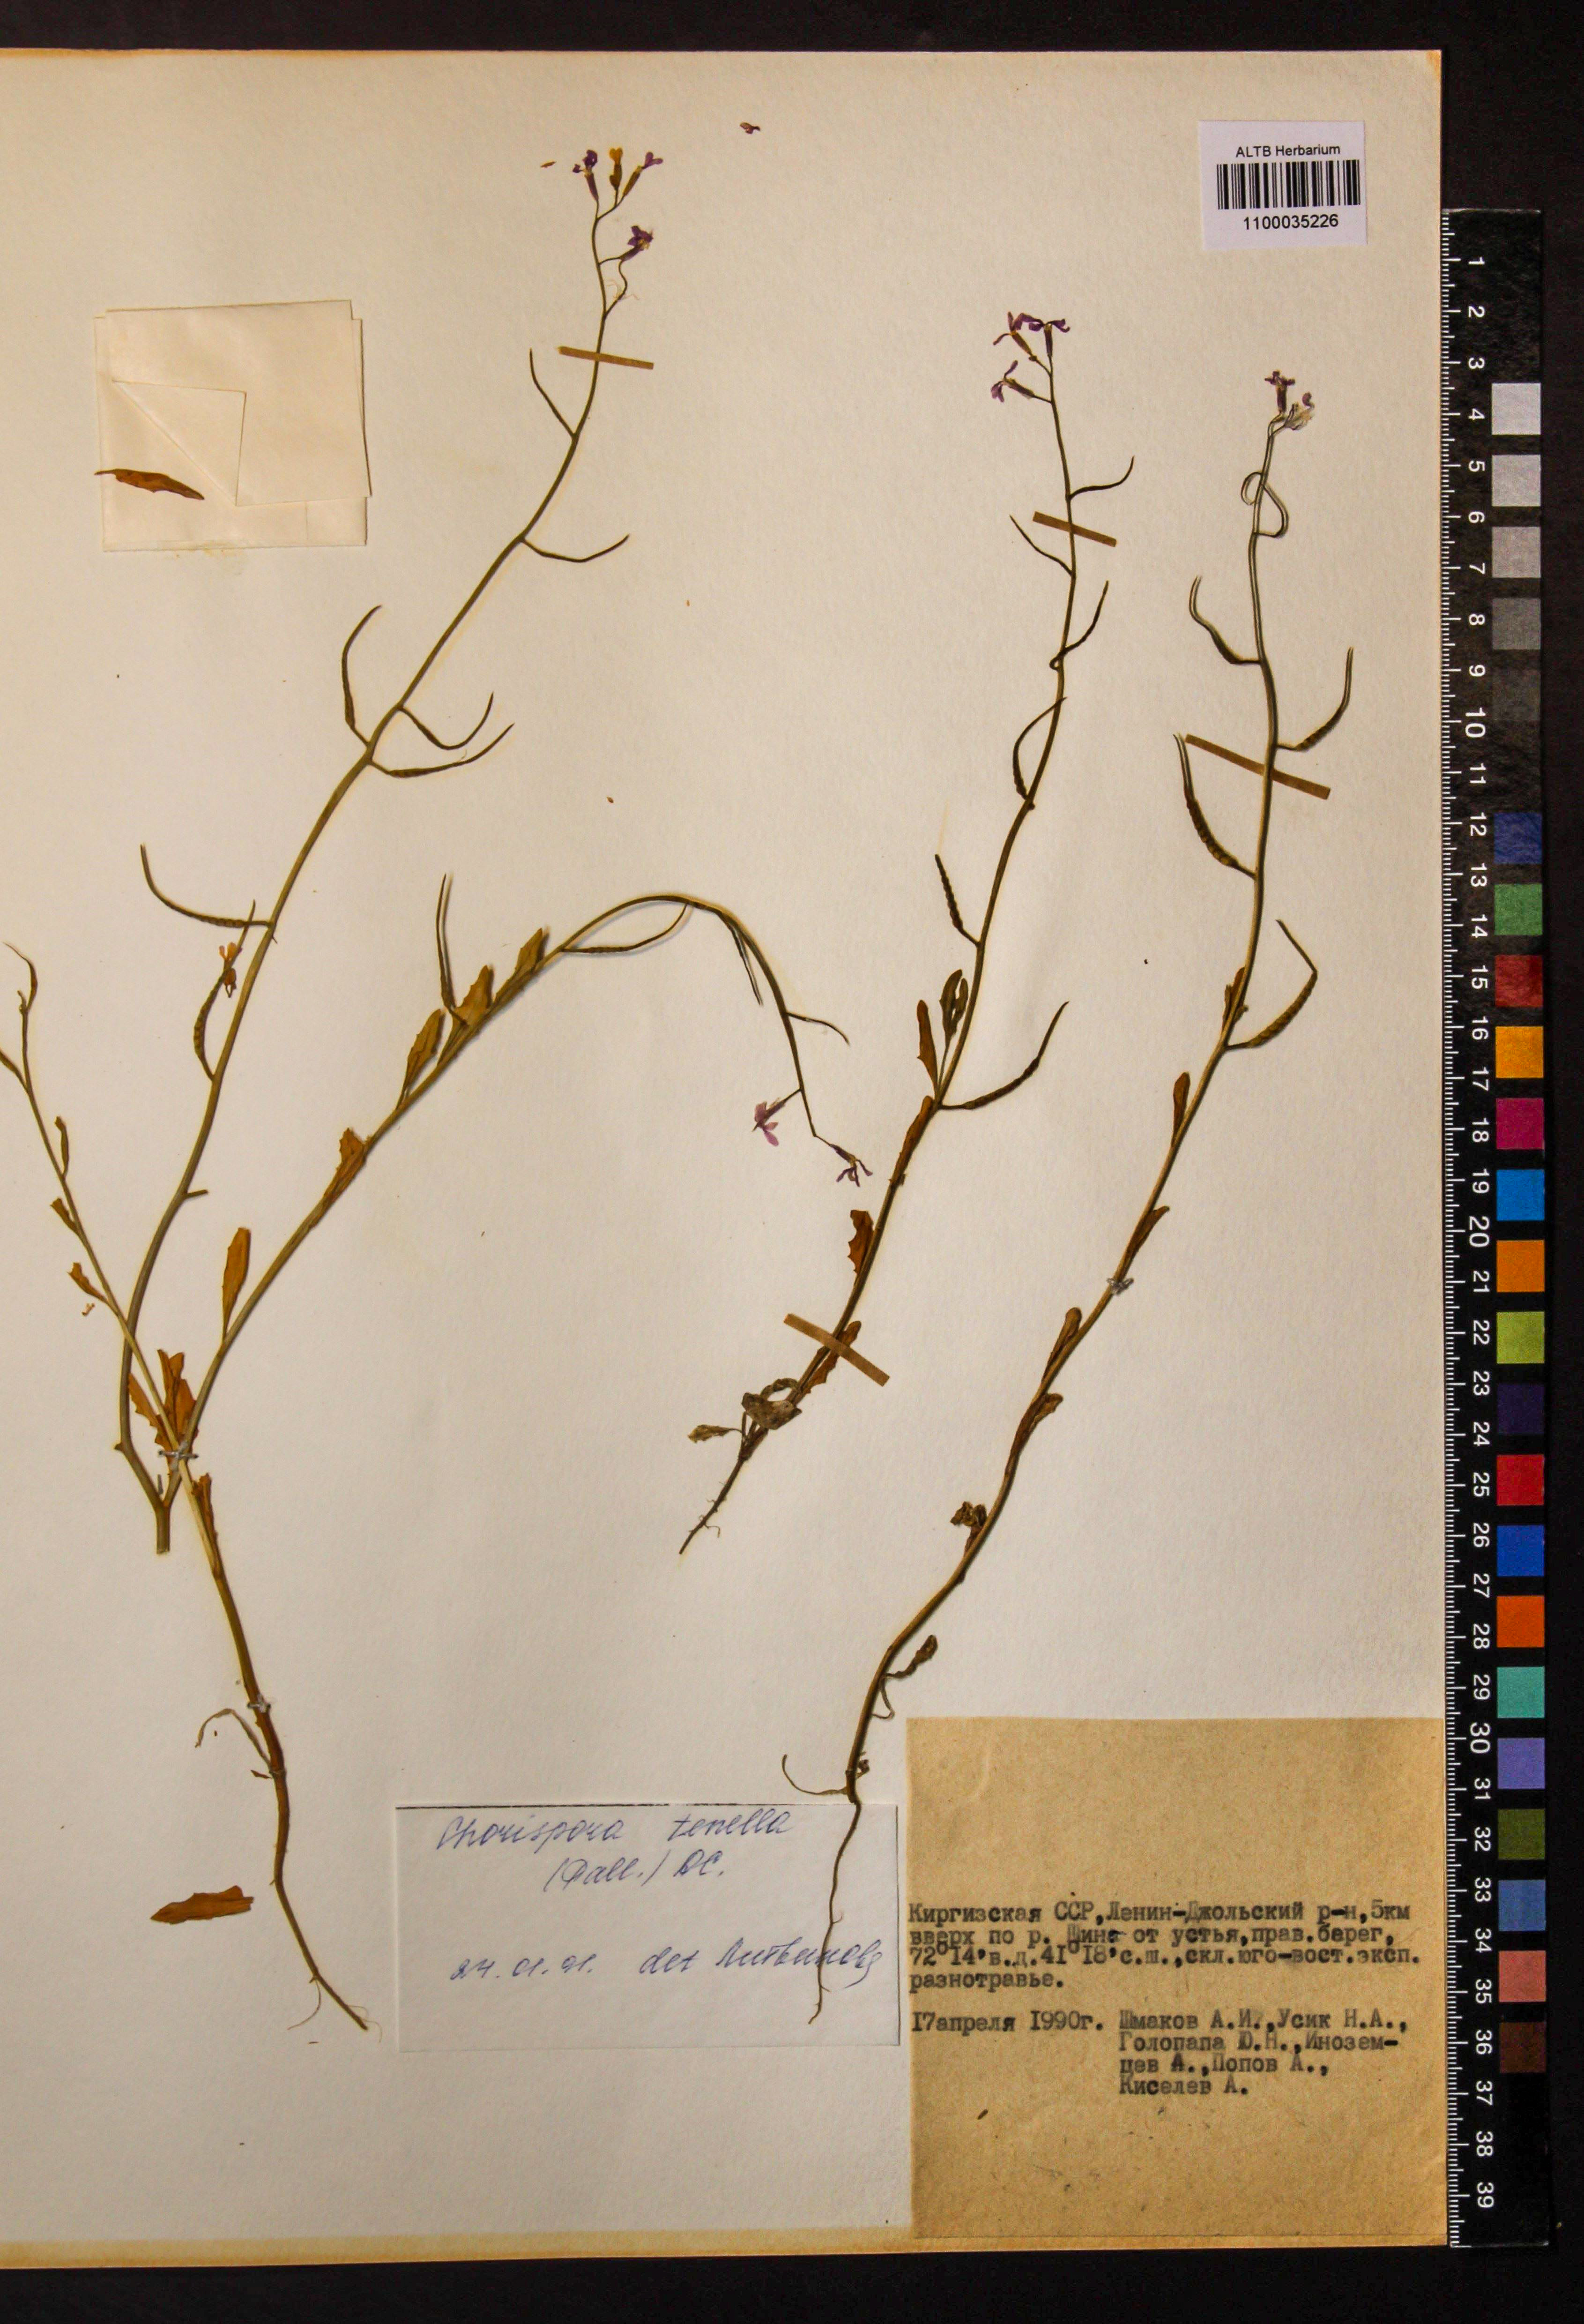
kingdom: Plantae
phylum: Tracheophyta
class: Magnoliopsida
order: Brassicales
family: Brassicaceae
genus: Chorispora
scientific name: Chorispora tenella
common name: Crossflower
